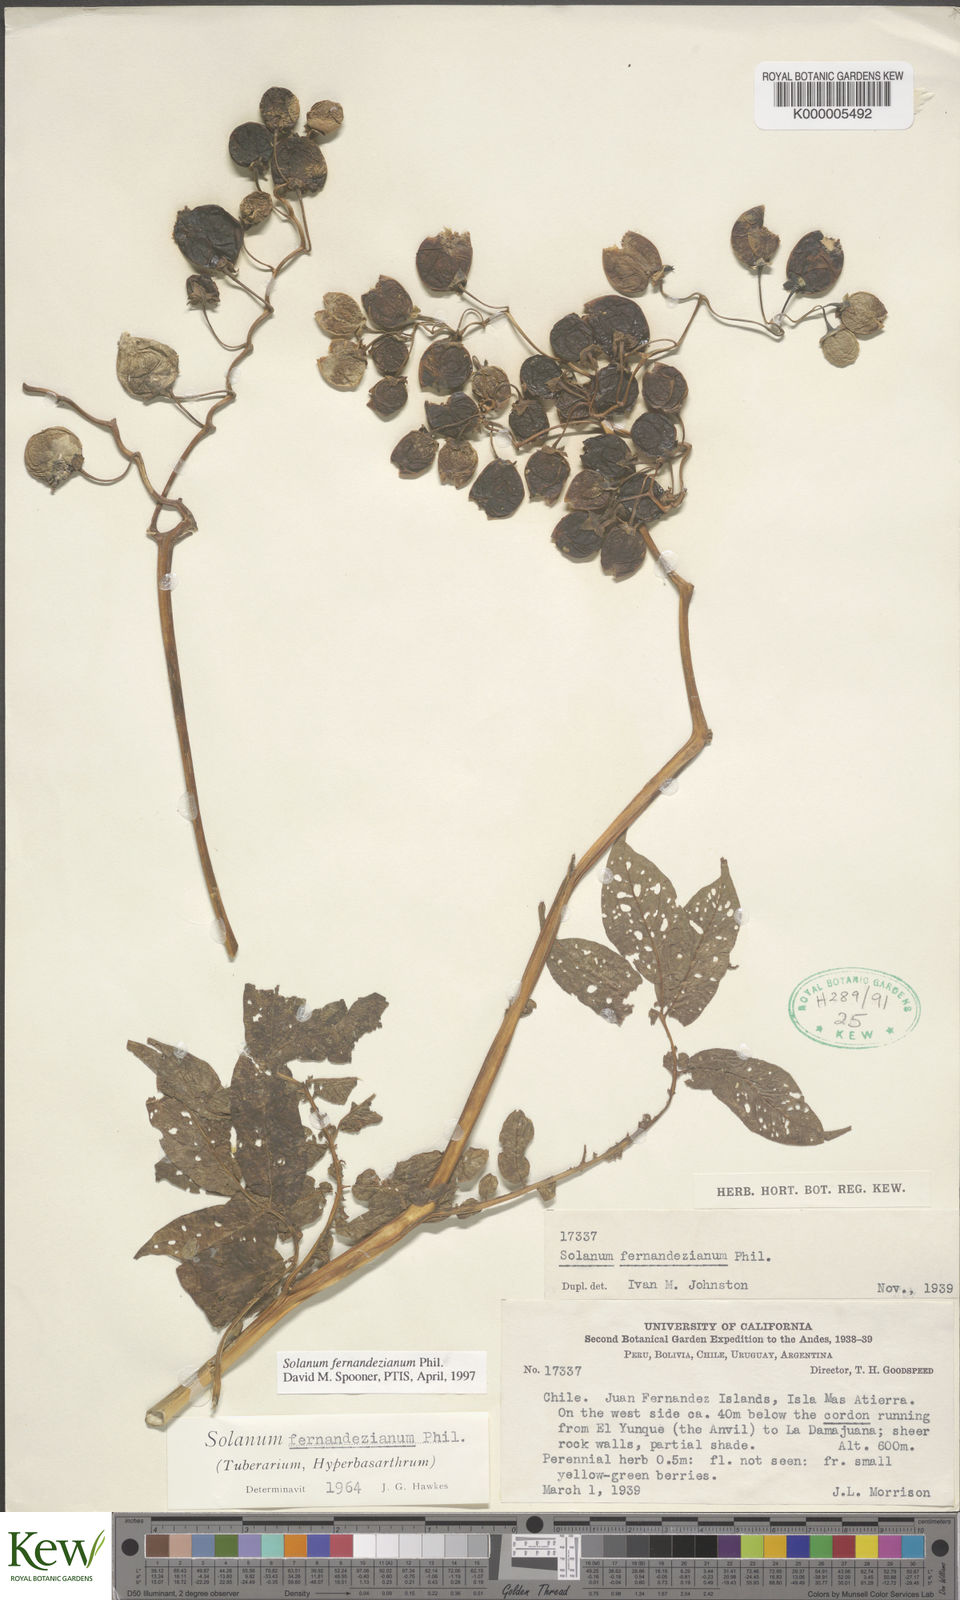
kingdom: Plantae
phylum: Tracheophyta
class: Magnoliopsida
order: Solanales
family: Solanaceae
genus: Solanum
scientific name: Solanum fernandezianum
